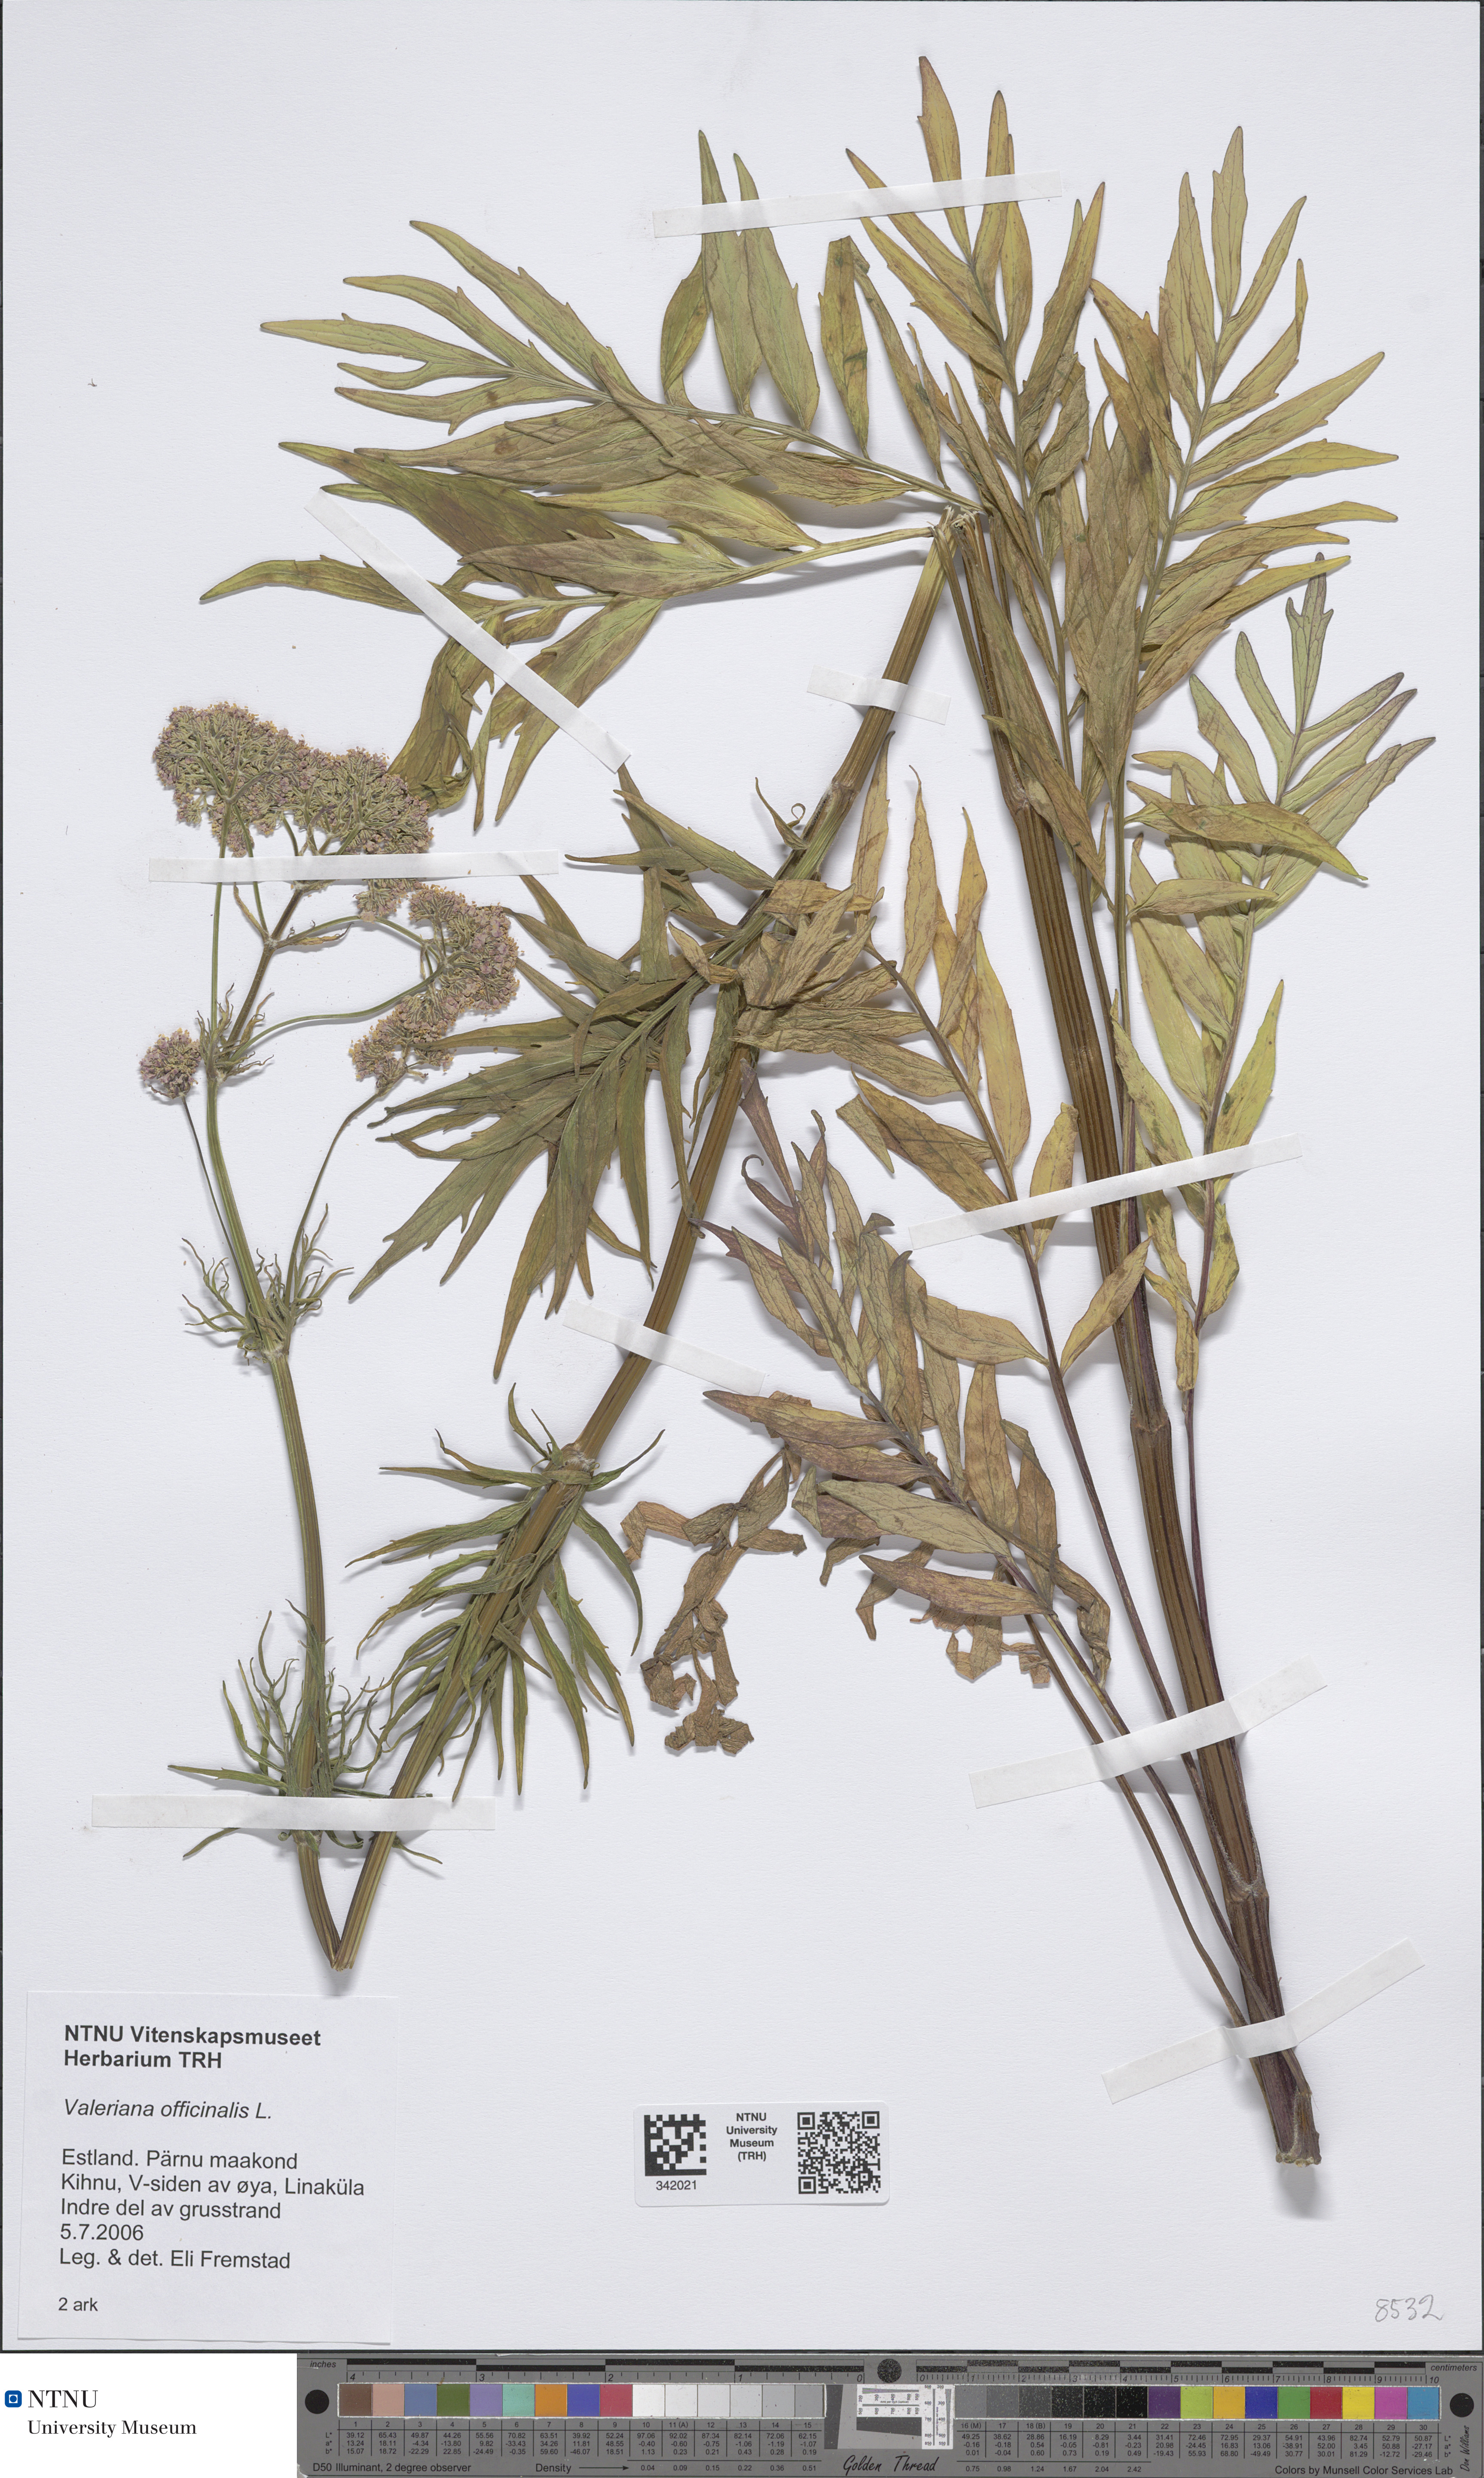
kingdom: Plantae
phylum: Tracheophyta
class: Magnoliopsida
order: Dipsacales
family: Caprifoliaceae
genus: Valeriana
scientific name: Valeriana officinalis
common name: Common valerian
